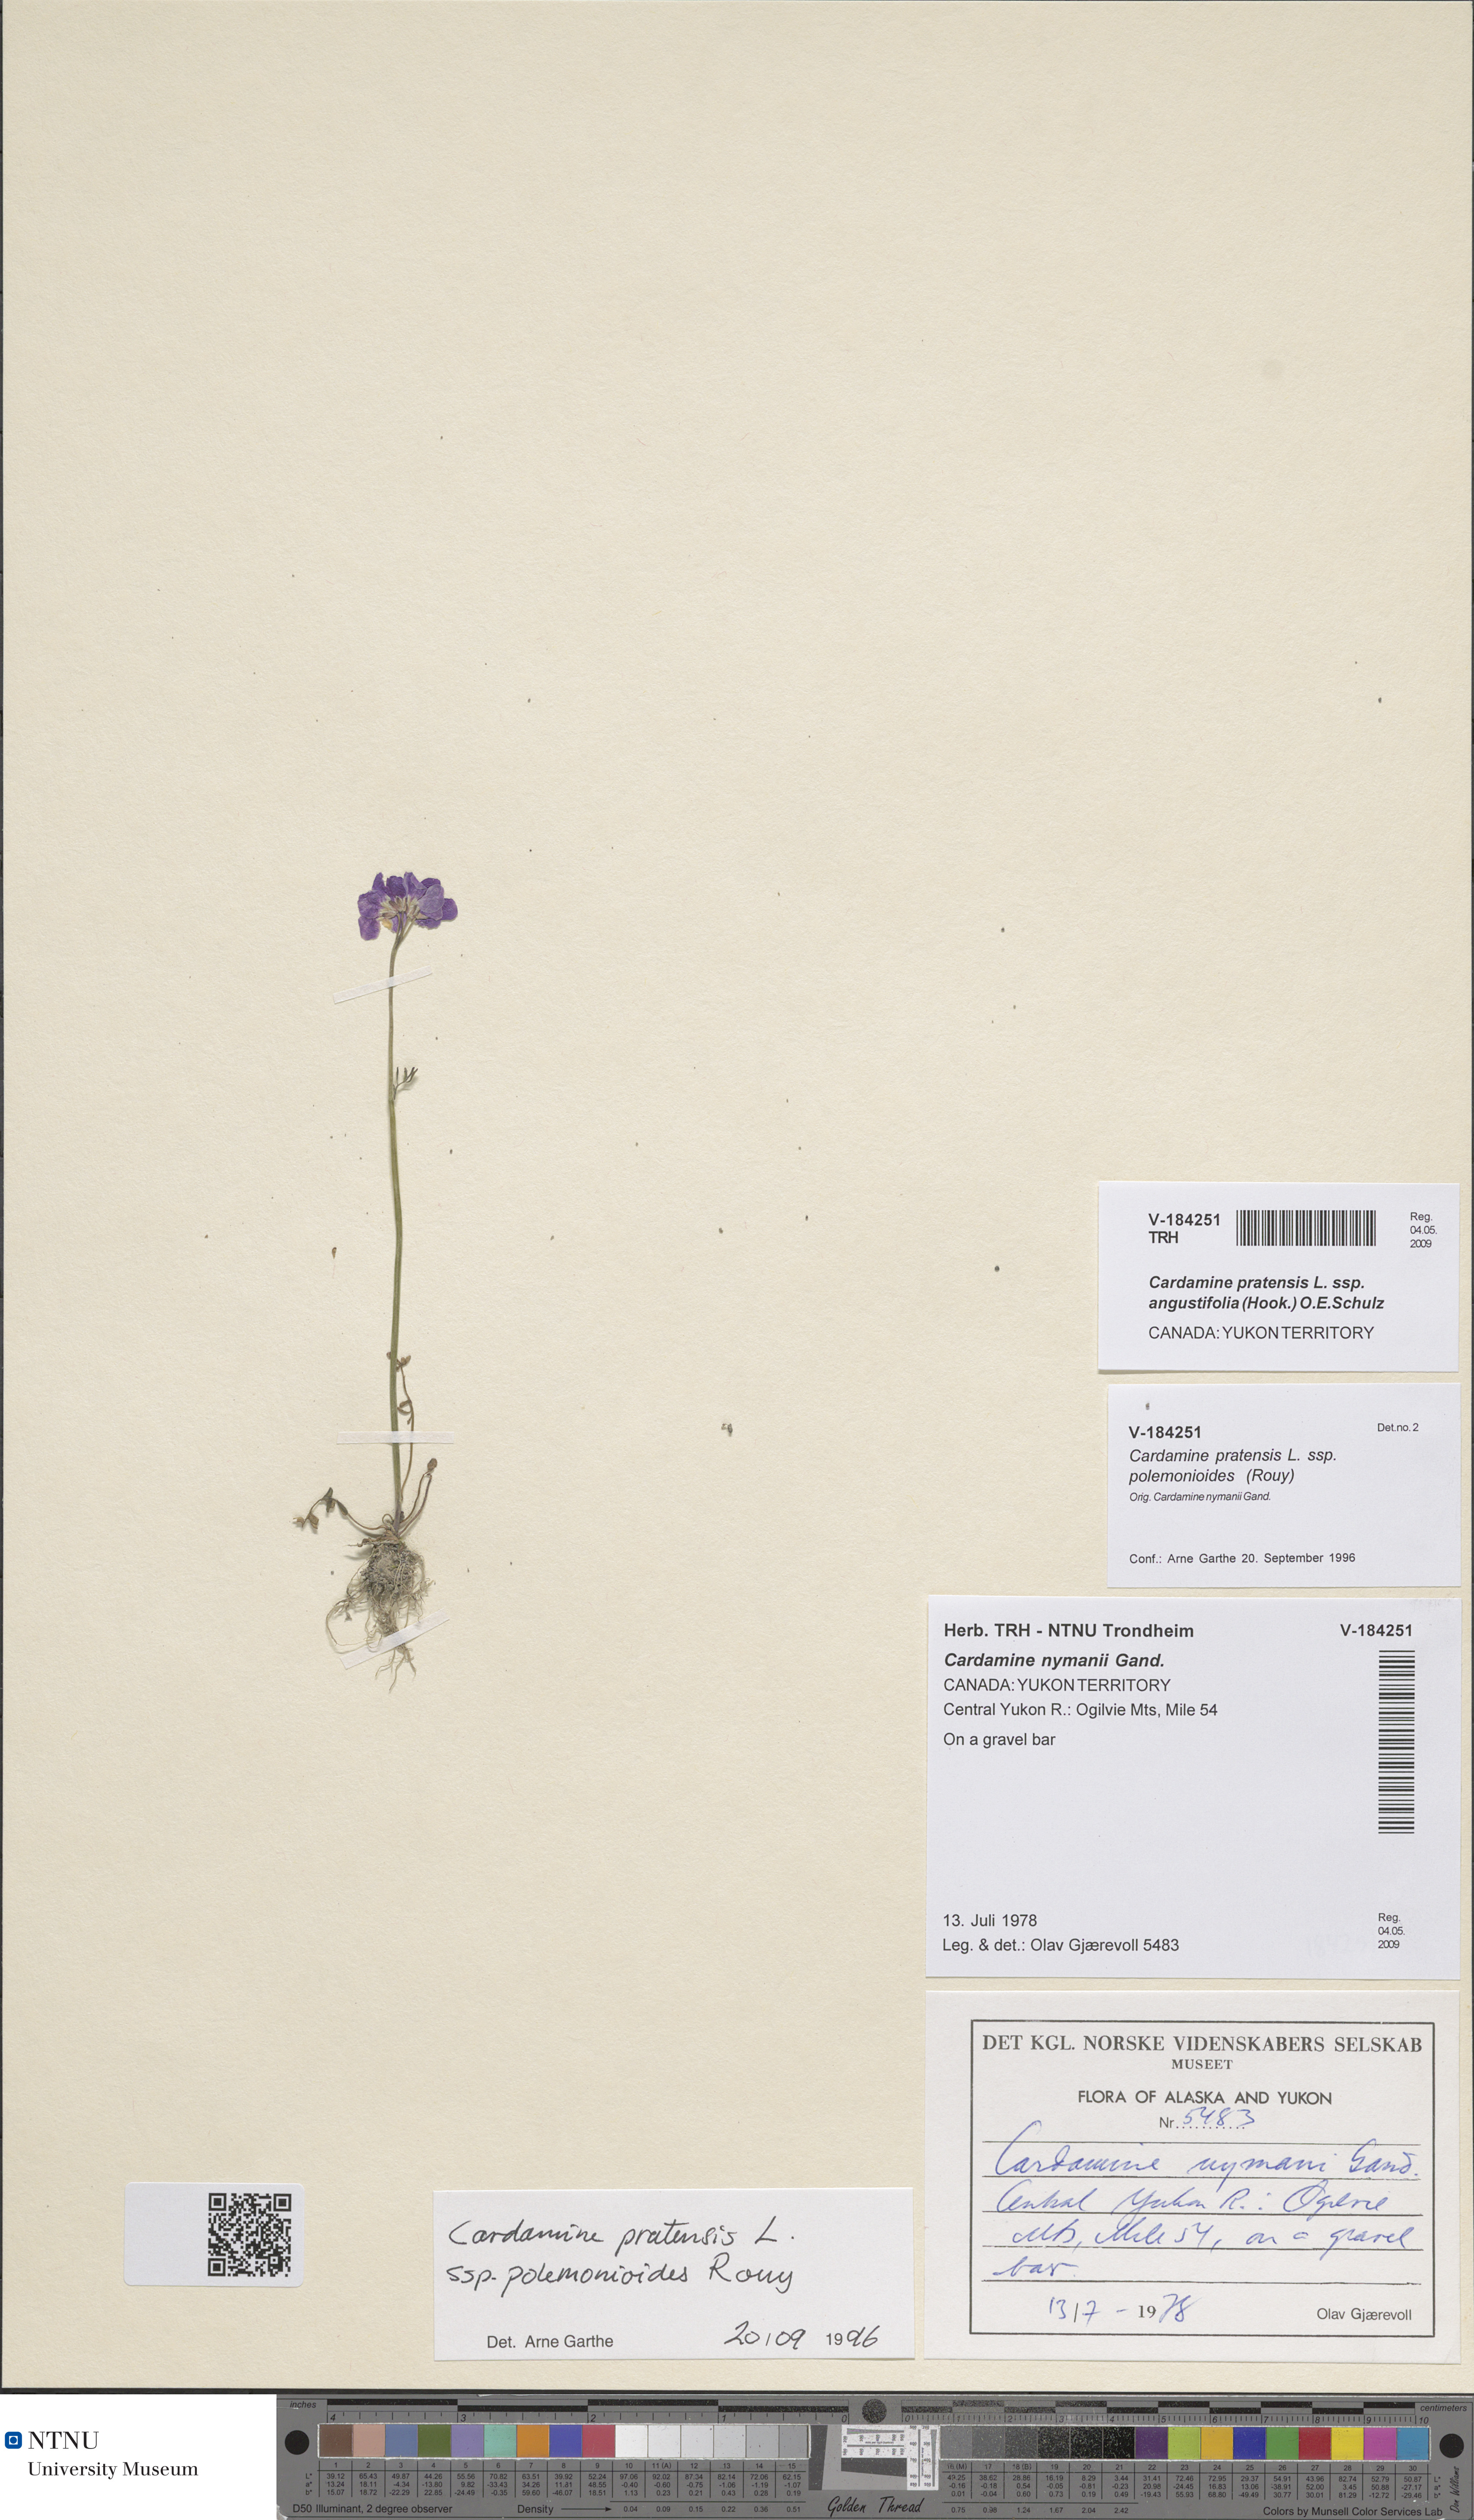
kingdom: Plantae
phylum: Tracheophyta
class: Magnoliopsida
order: Brassicales
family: Brassicaceae
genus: Cardamine
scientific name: Cardamine nymanii
